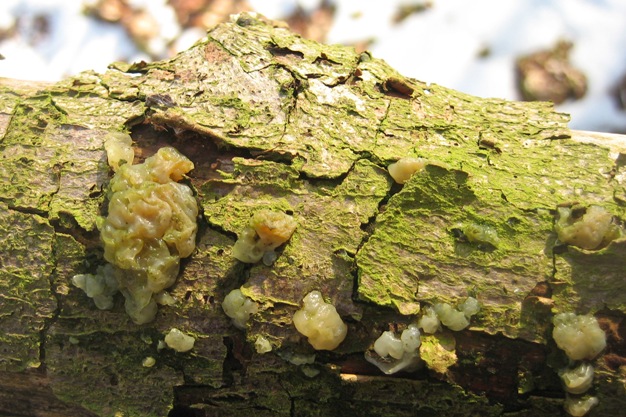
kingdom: Fungi
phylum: Basidiomycota
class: Agaricomycetes
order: Auriculariales
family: Hyaloriaceae
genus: Myxarium
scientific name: Myxarium nucleatum
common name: klar bævretop
